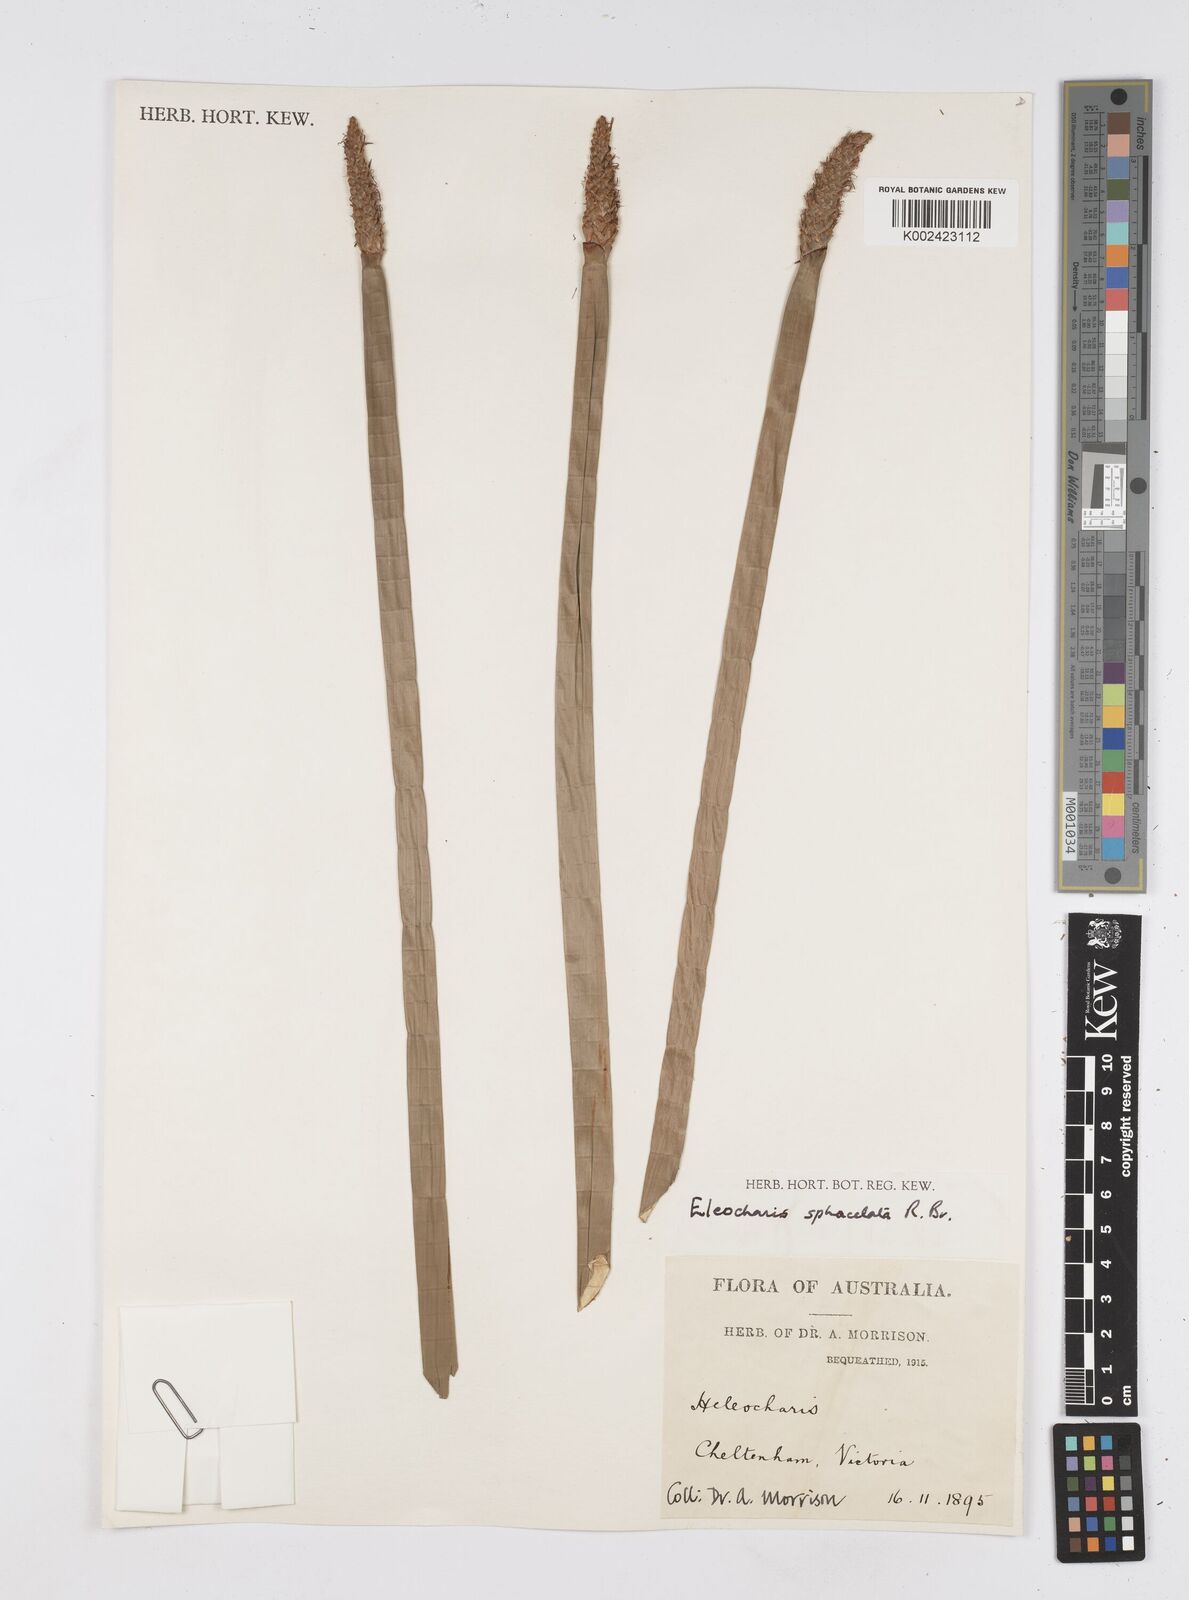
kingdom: Plantae
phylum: Tracheophyta
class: Liliopsida
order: Poales
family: Cyperaceae
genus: Eleocharis
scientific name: Eleocharis sphacelata
